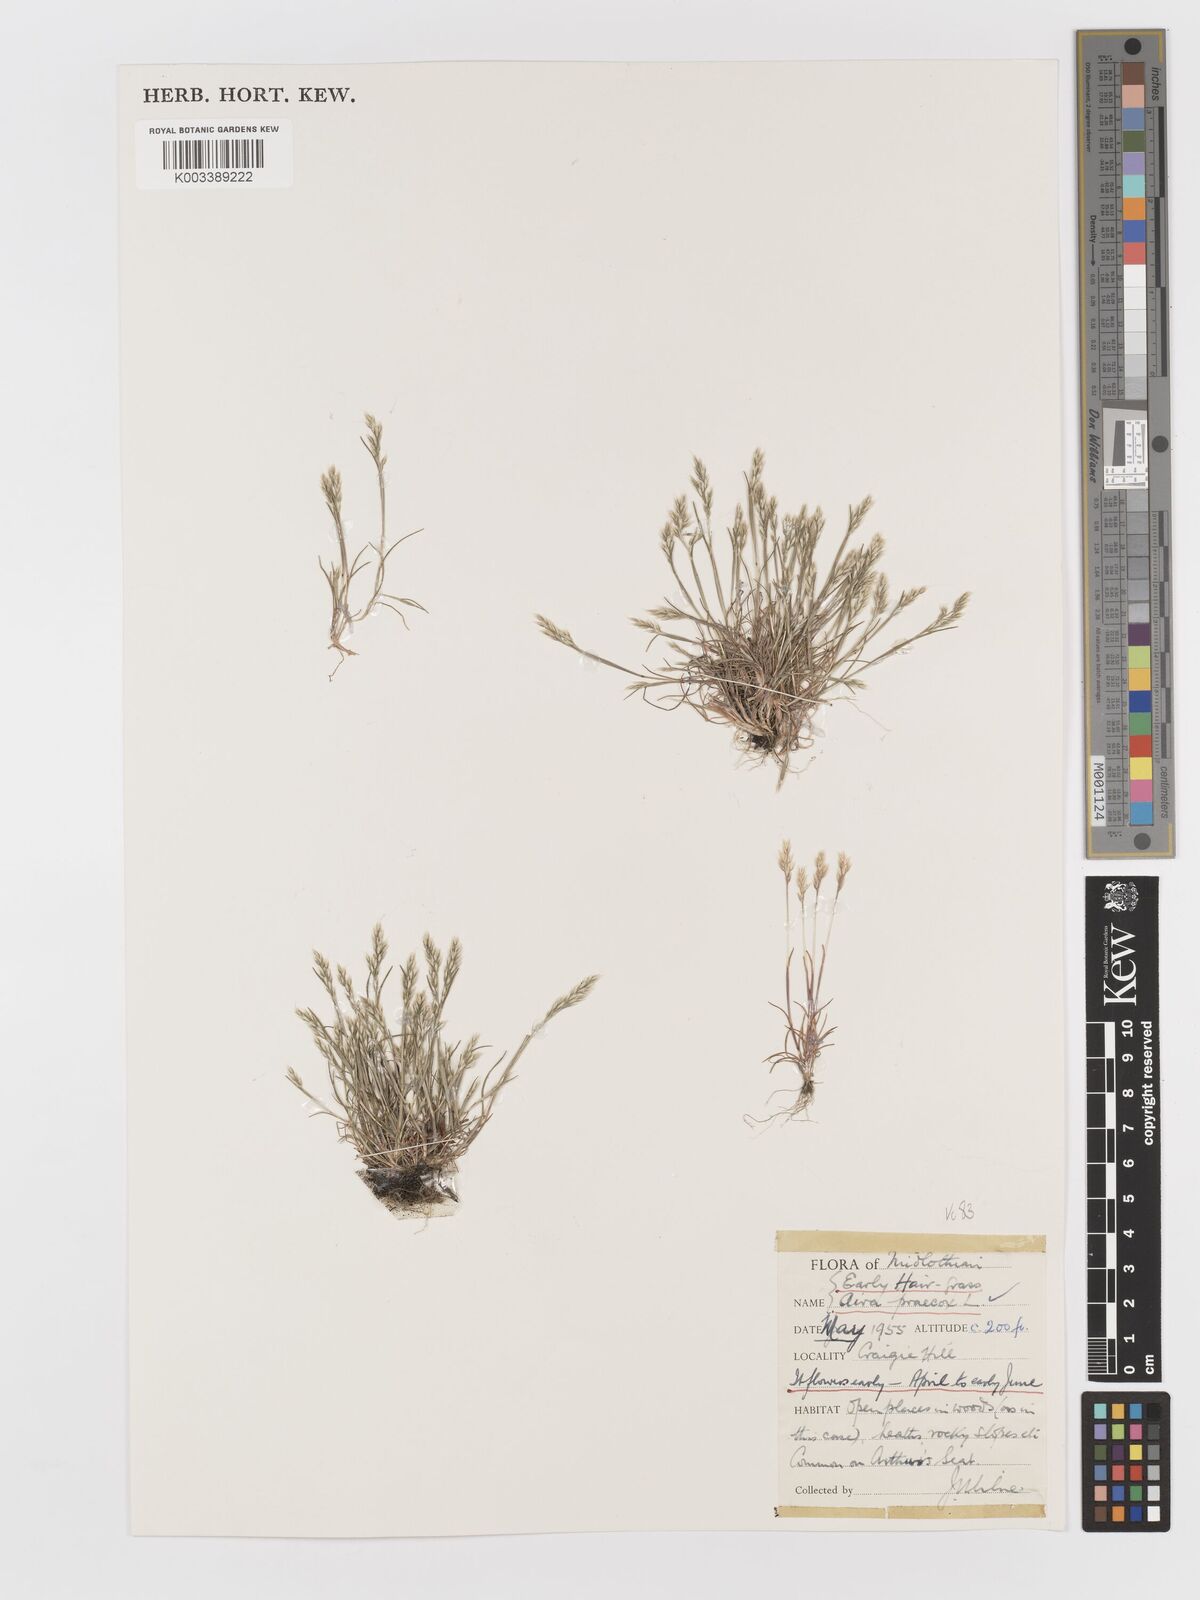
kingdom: Plantae
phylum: Tracheophyta
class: Liliopsida
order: Poales
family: Poaceae
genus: Aira
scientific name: Aira praecox
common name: Early hair-grass
